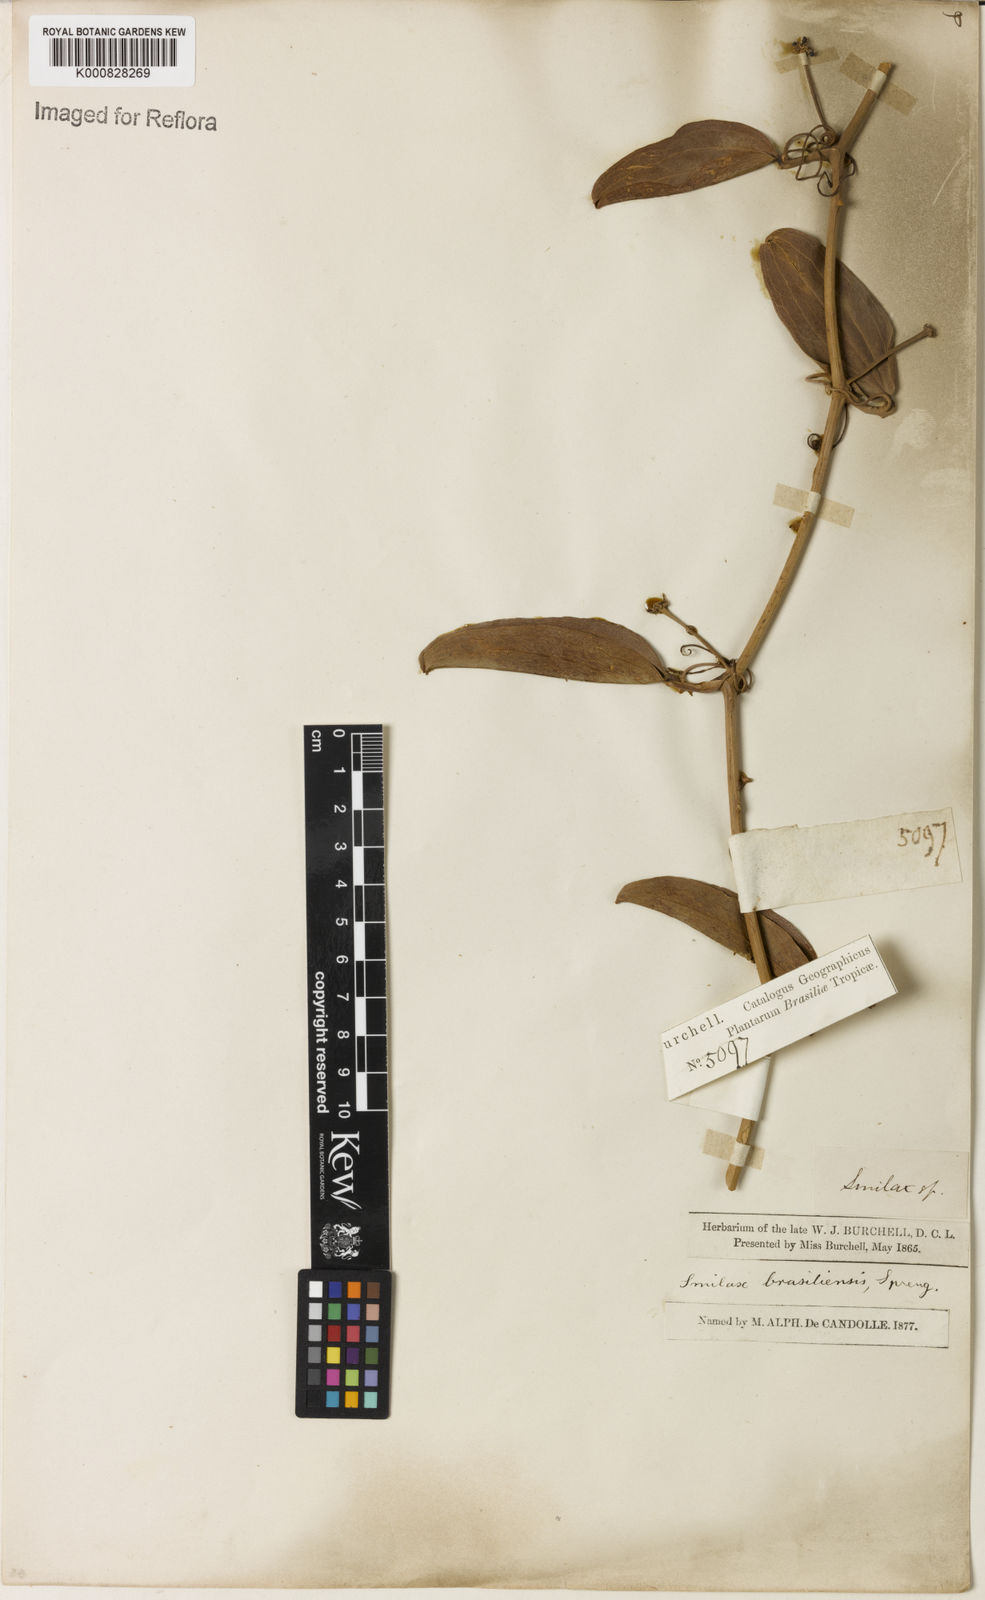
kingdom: Plantae
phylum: Tracheophyta
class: Liliopsida
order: Liliales
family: Smilacaceae
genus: Smilax
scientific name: Smilax brasiliensis
